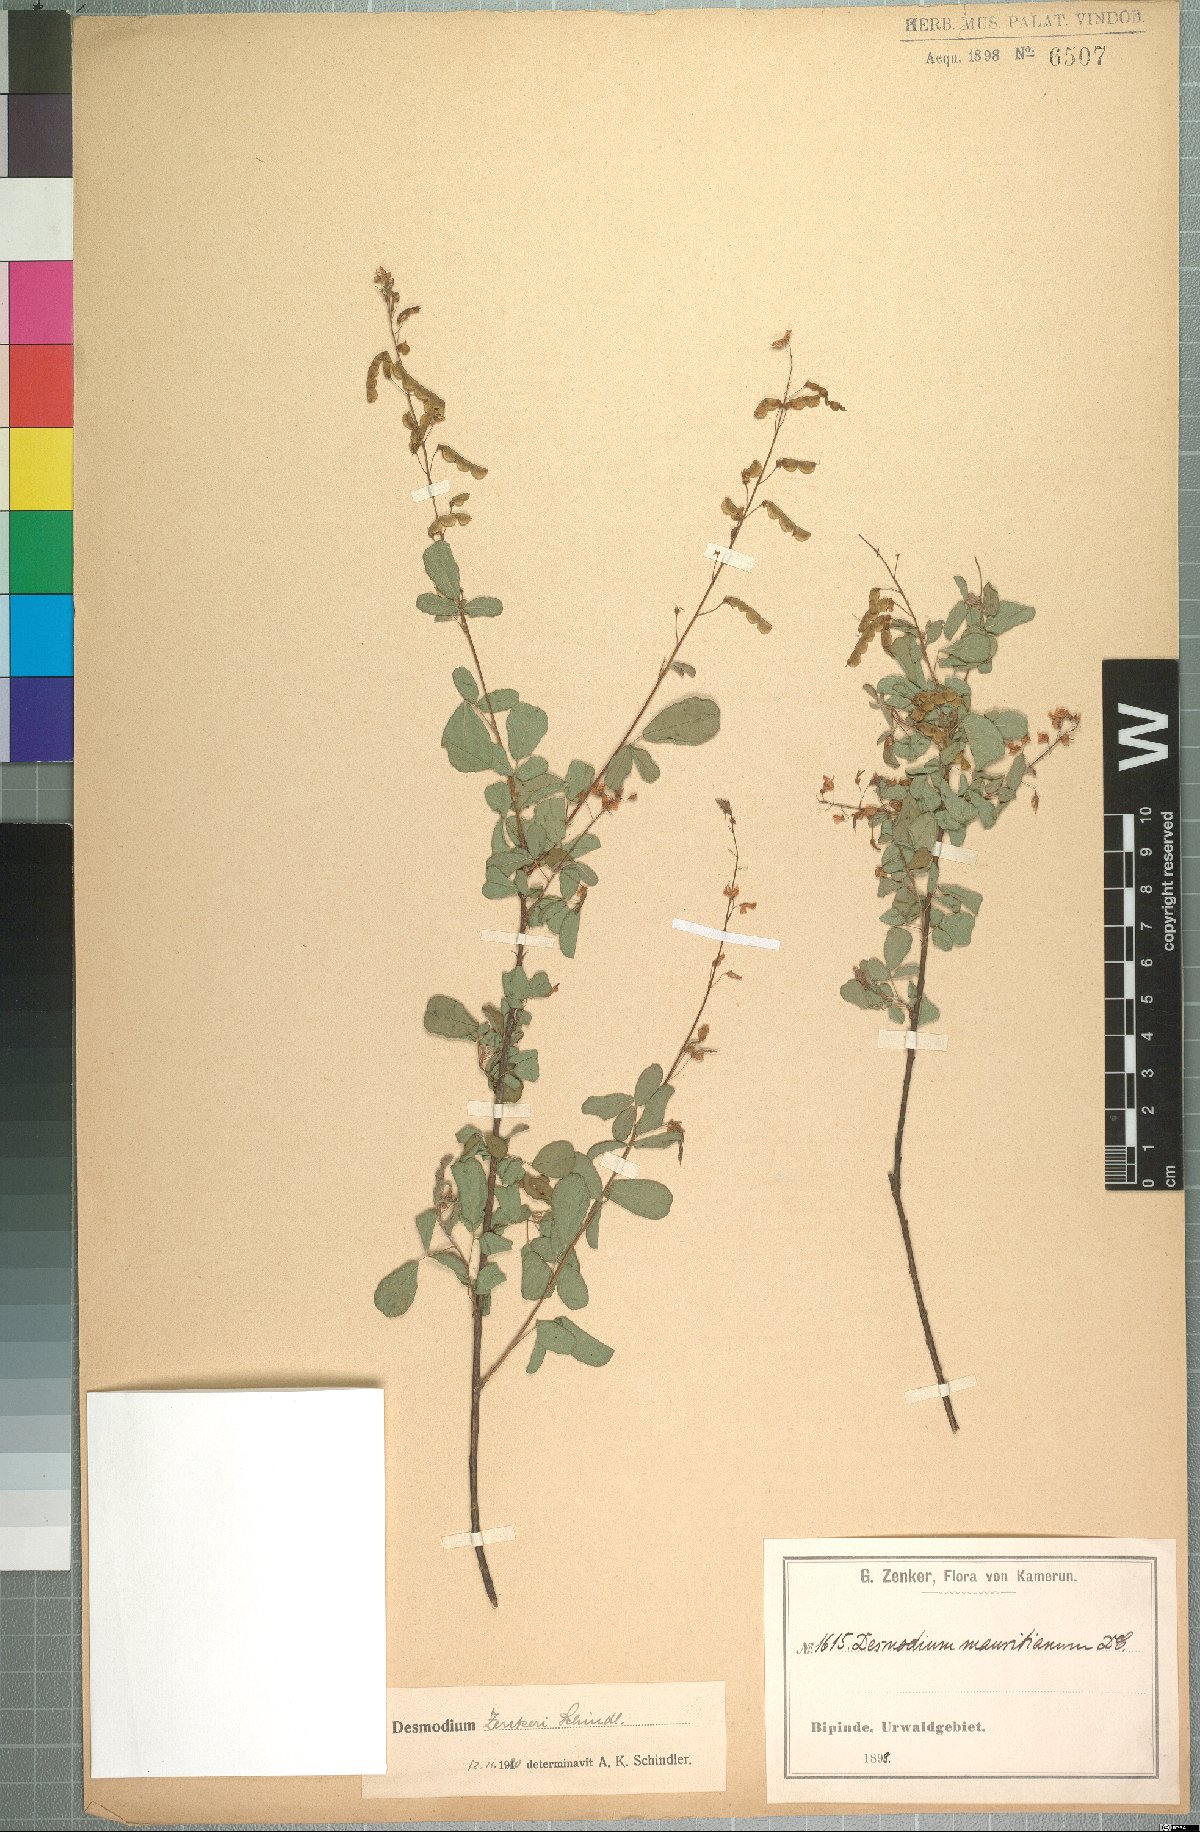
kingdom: Plantae
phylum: Tracheophyta
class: Magnoliopsida
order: Fabales
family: Fabaceae
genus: Grona
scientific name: Grona zenkeri
